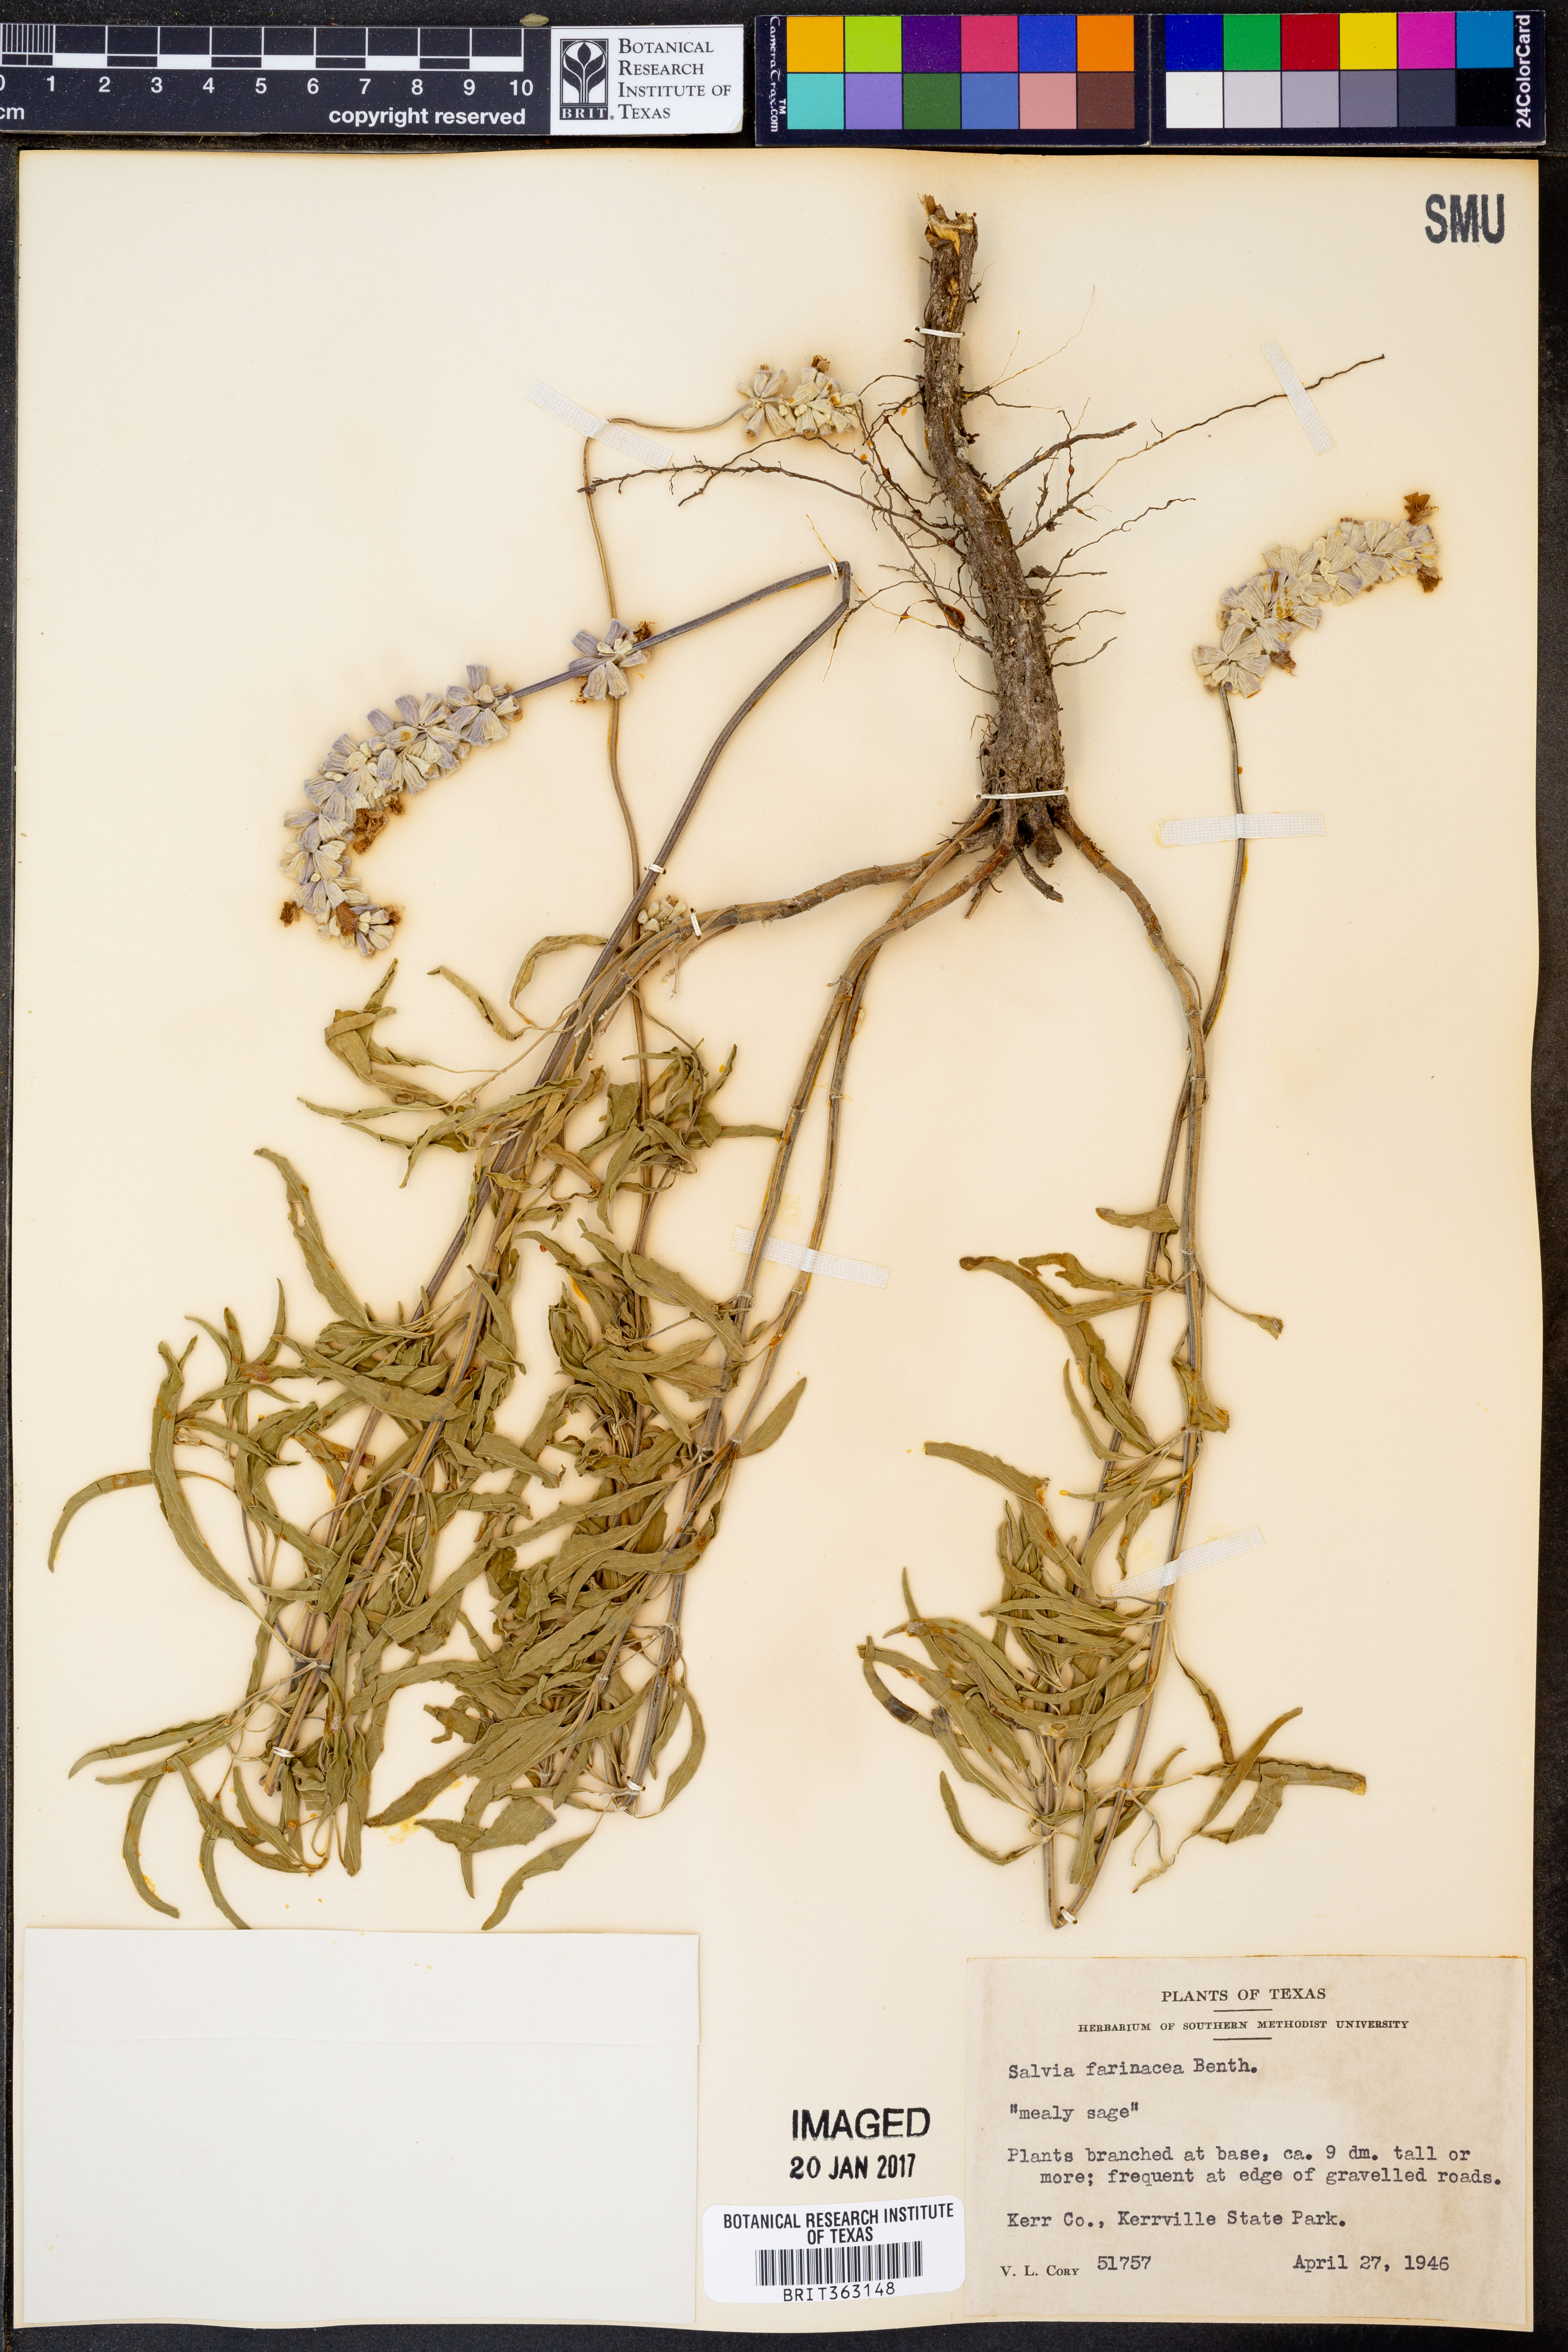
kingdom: Plantae
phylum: Tracheophyta
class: Magnoliopsida
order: Lamiales
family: Lamiaceae
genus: Salvia
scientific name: Salvia farinacea
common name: Mealy sage
